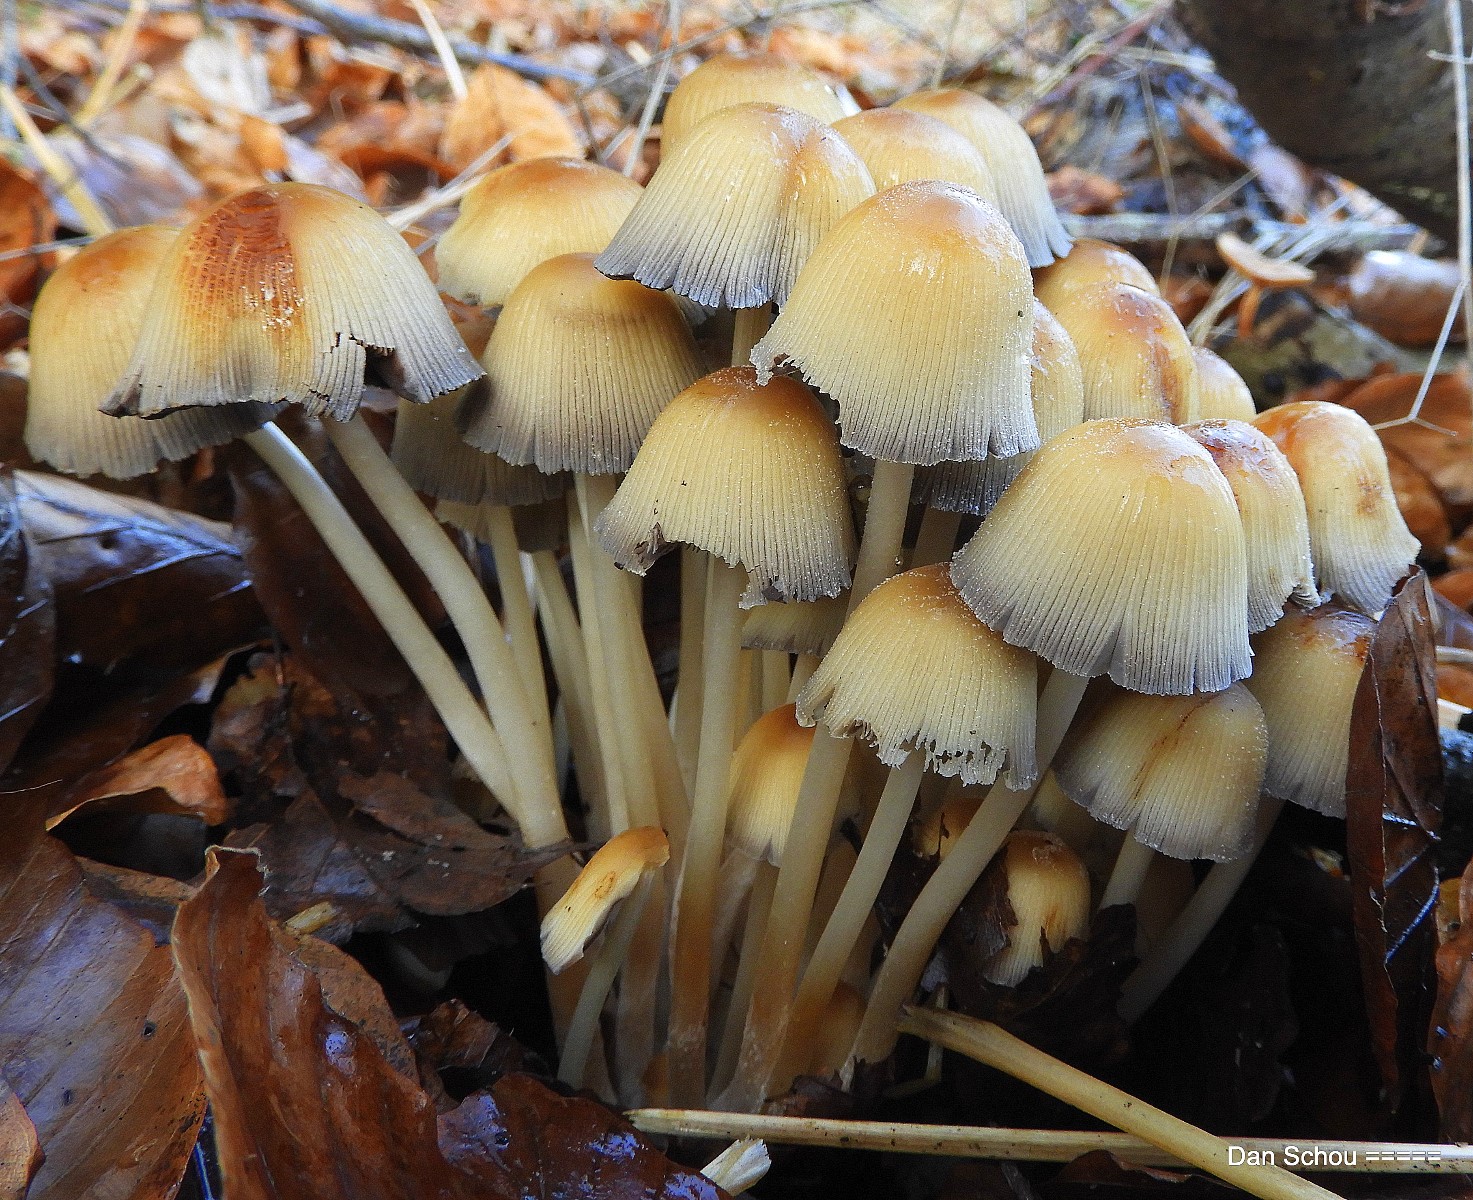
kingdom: Fungi
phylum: Basidiomycota
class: Agaricomycetes
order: Agaricales
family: Psathyrellaceae
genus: Coprinellus
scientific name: Coprinellus micaceus
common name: glimmer-blækhat
